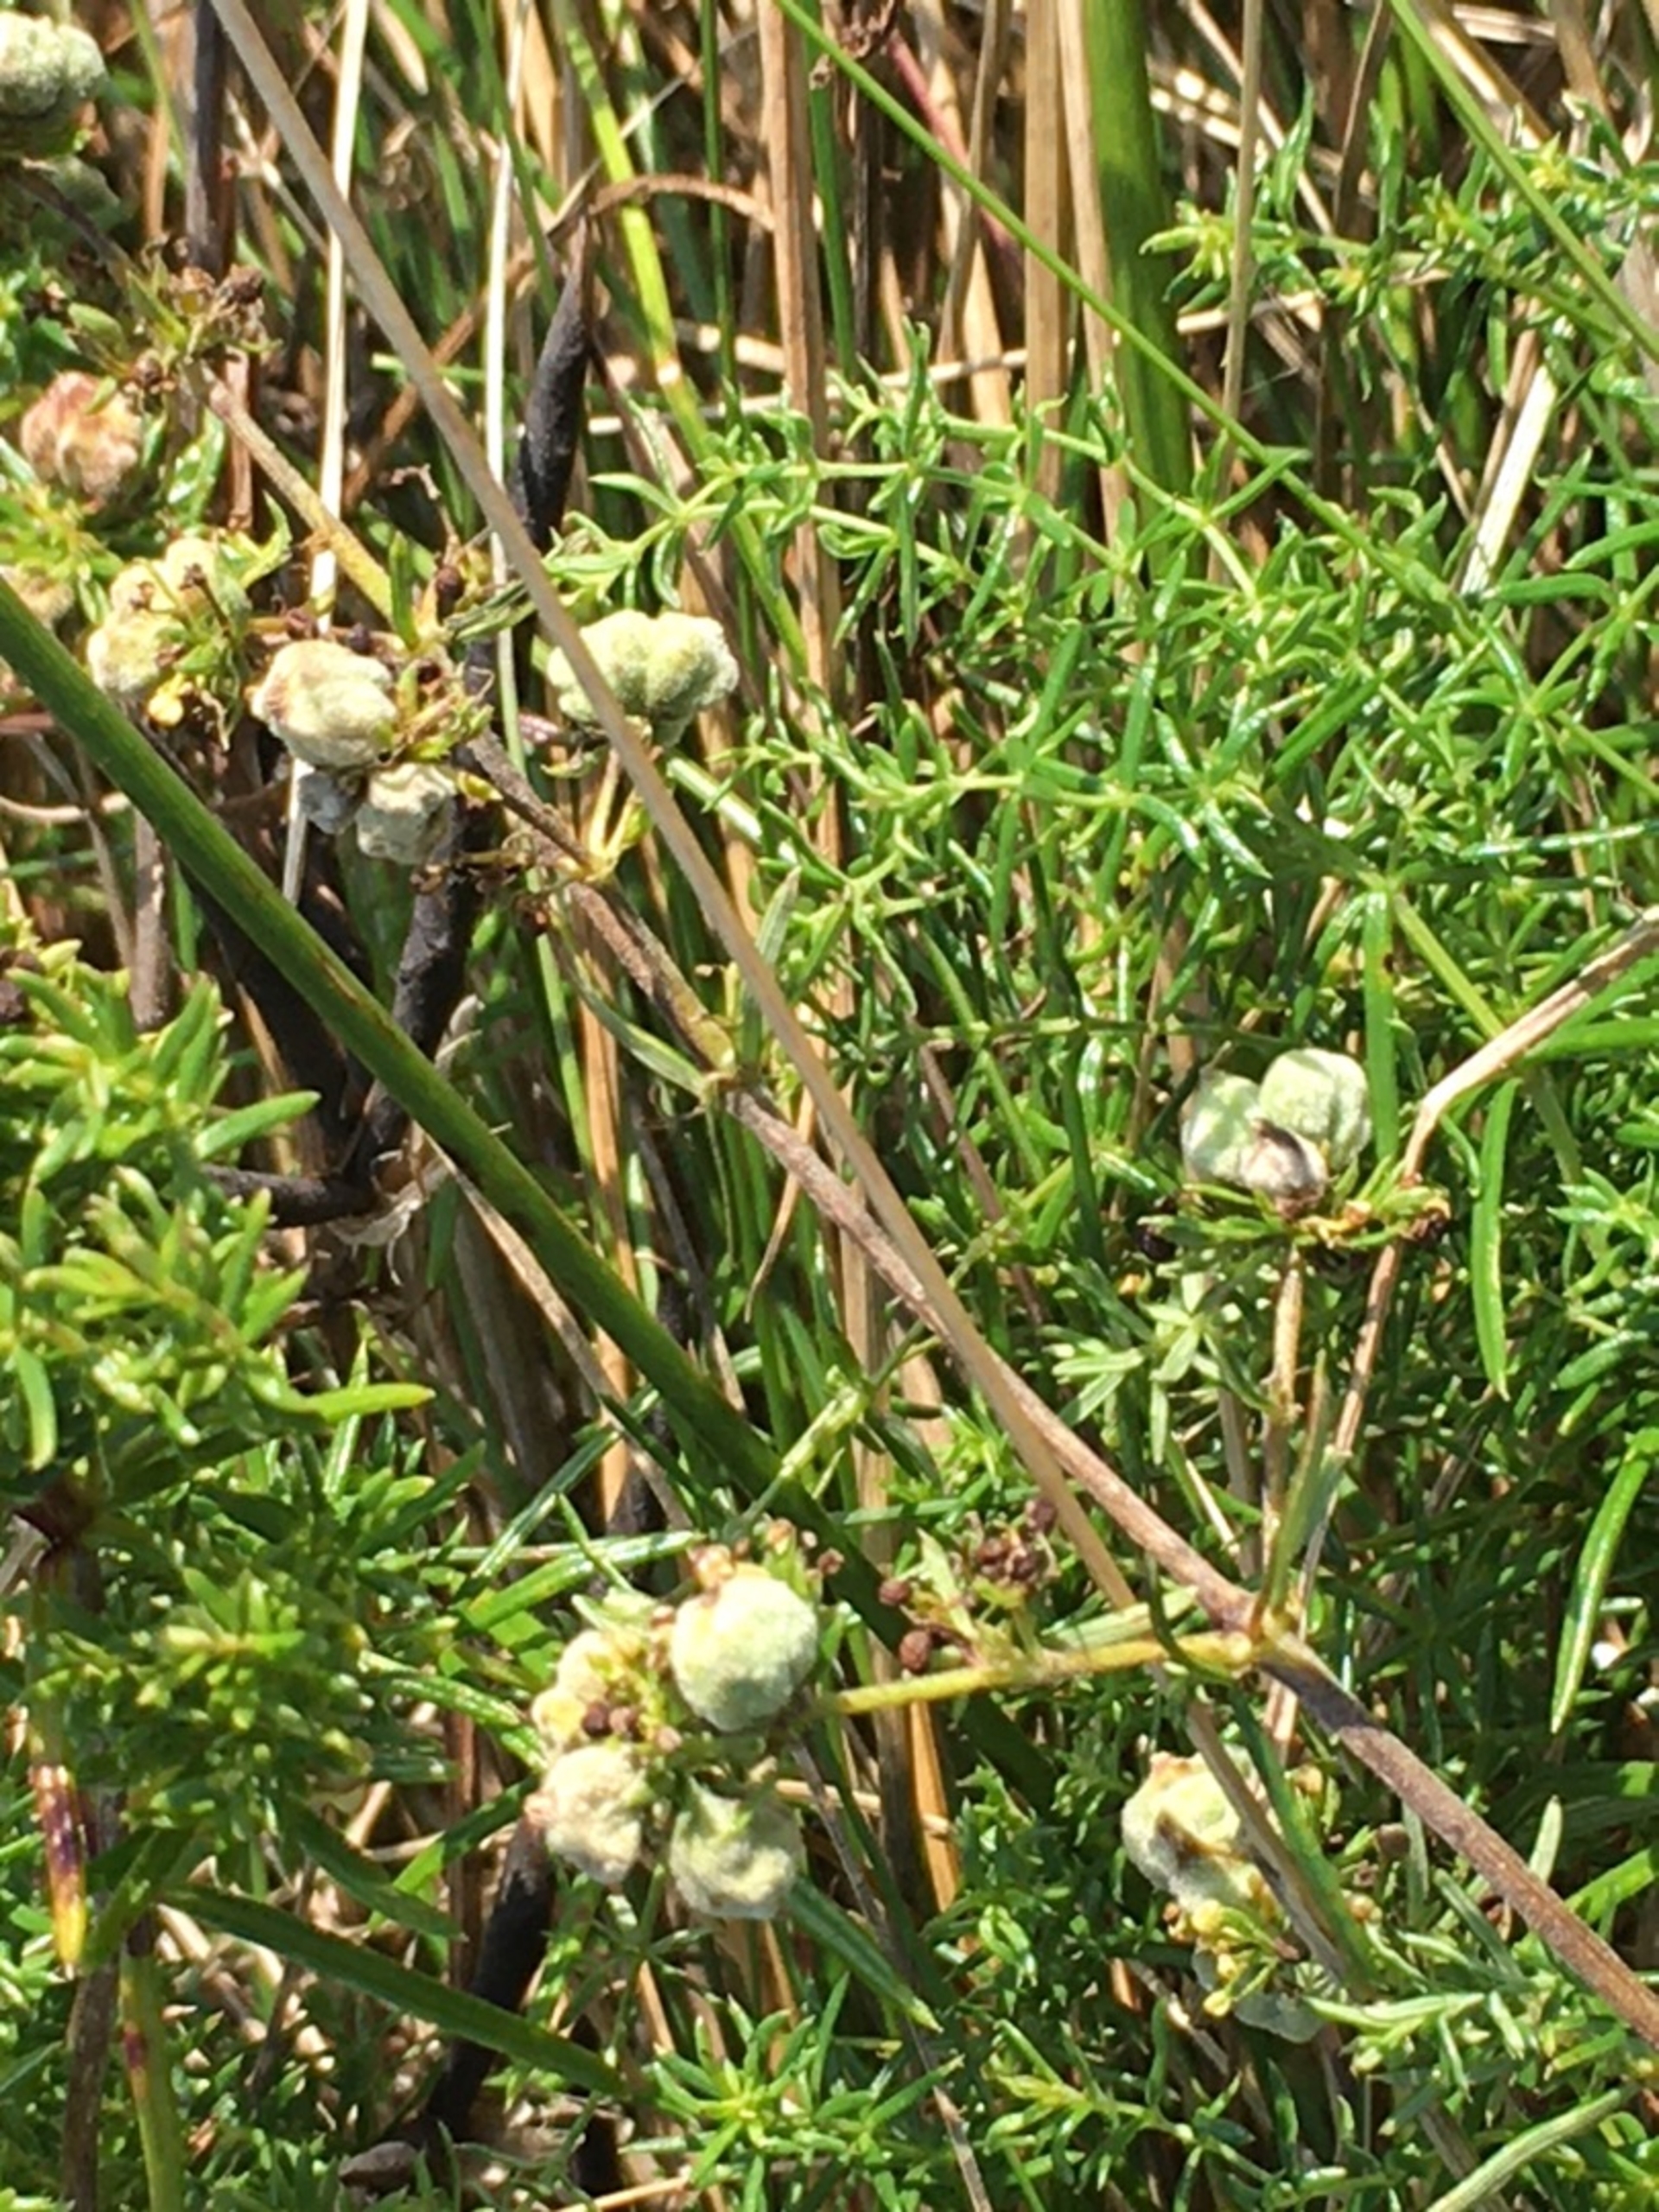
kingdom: Animalia
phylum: Arthropoda
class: Arachnida
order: Trombidiformes
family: Eriophyidae
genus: Aceria
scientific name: Aceria galiobia
